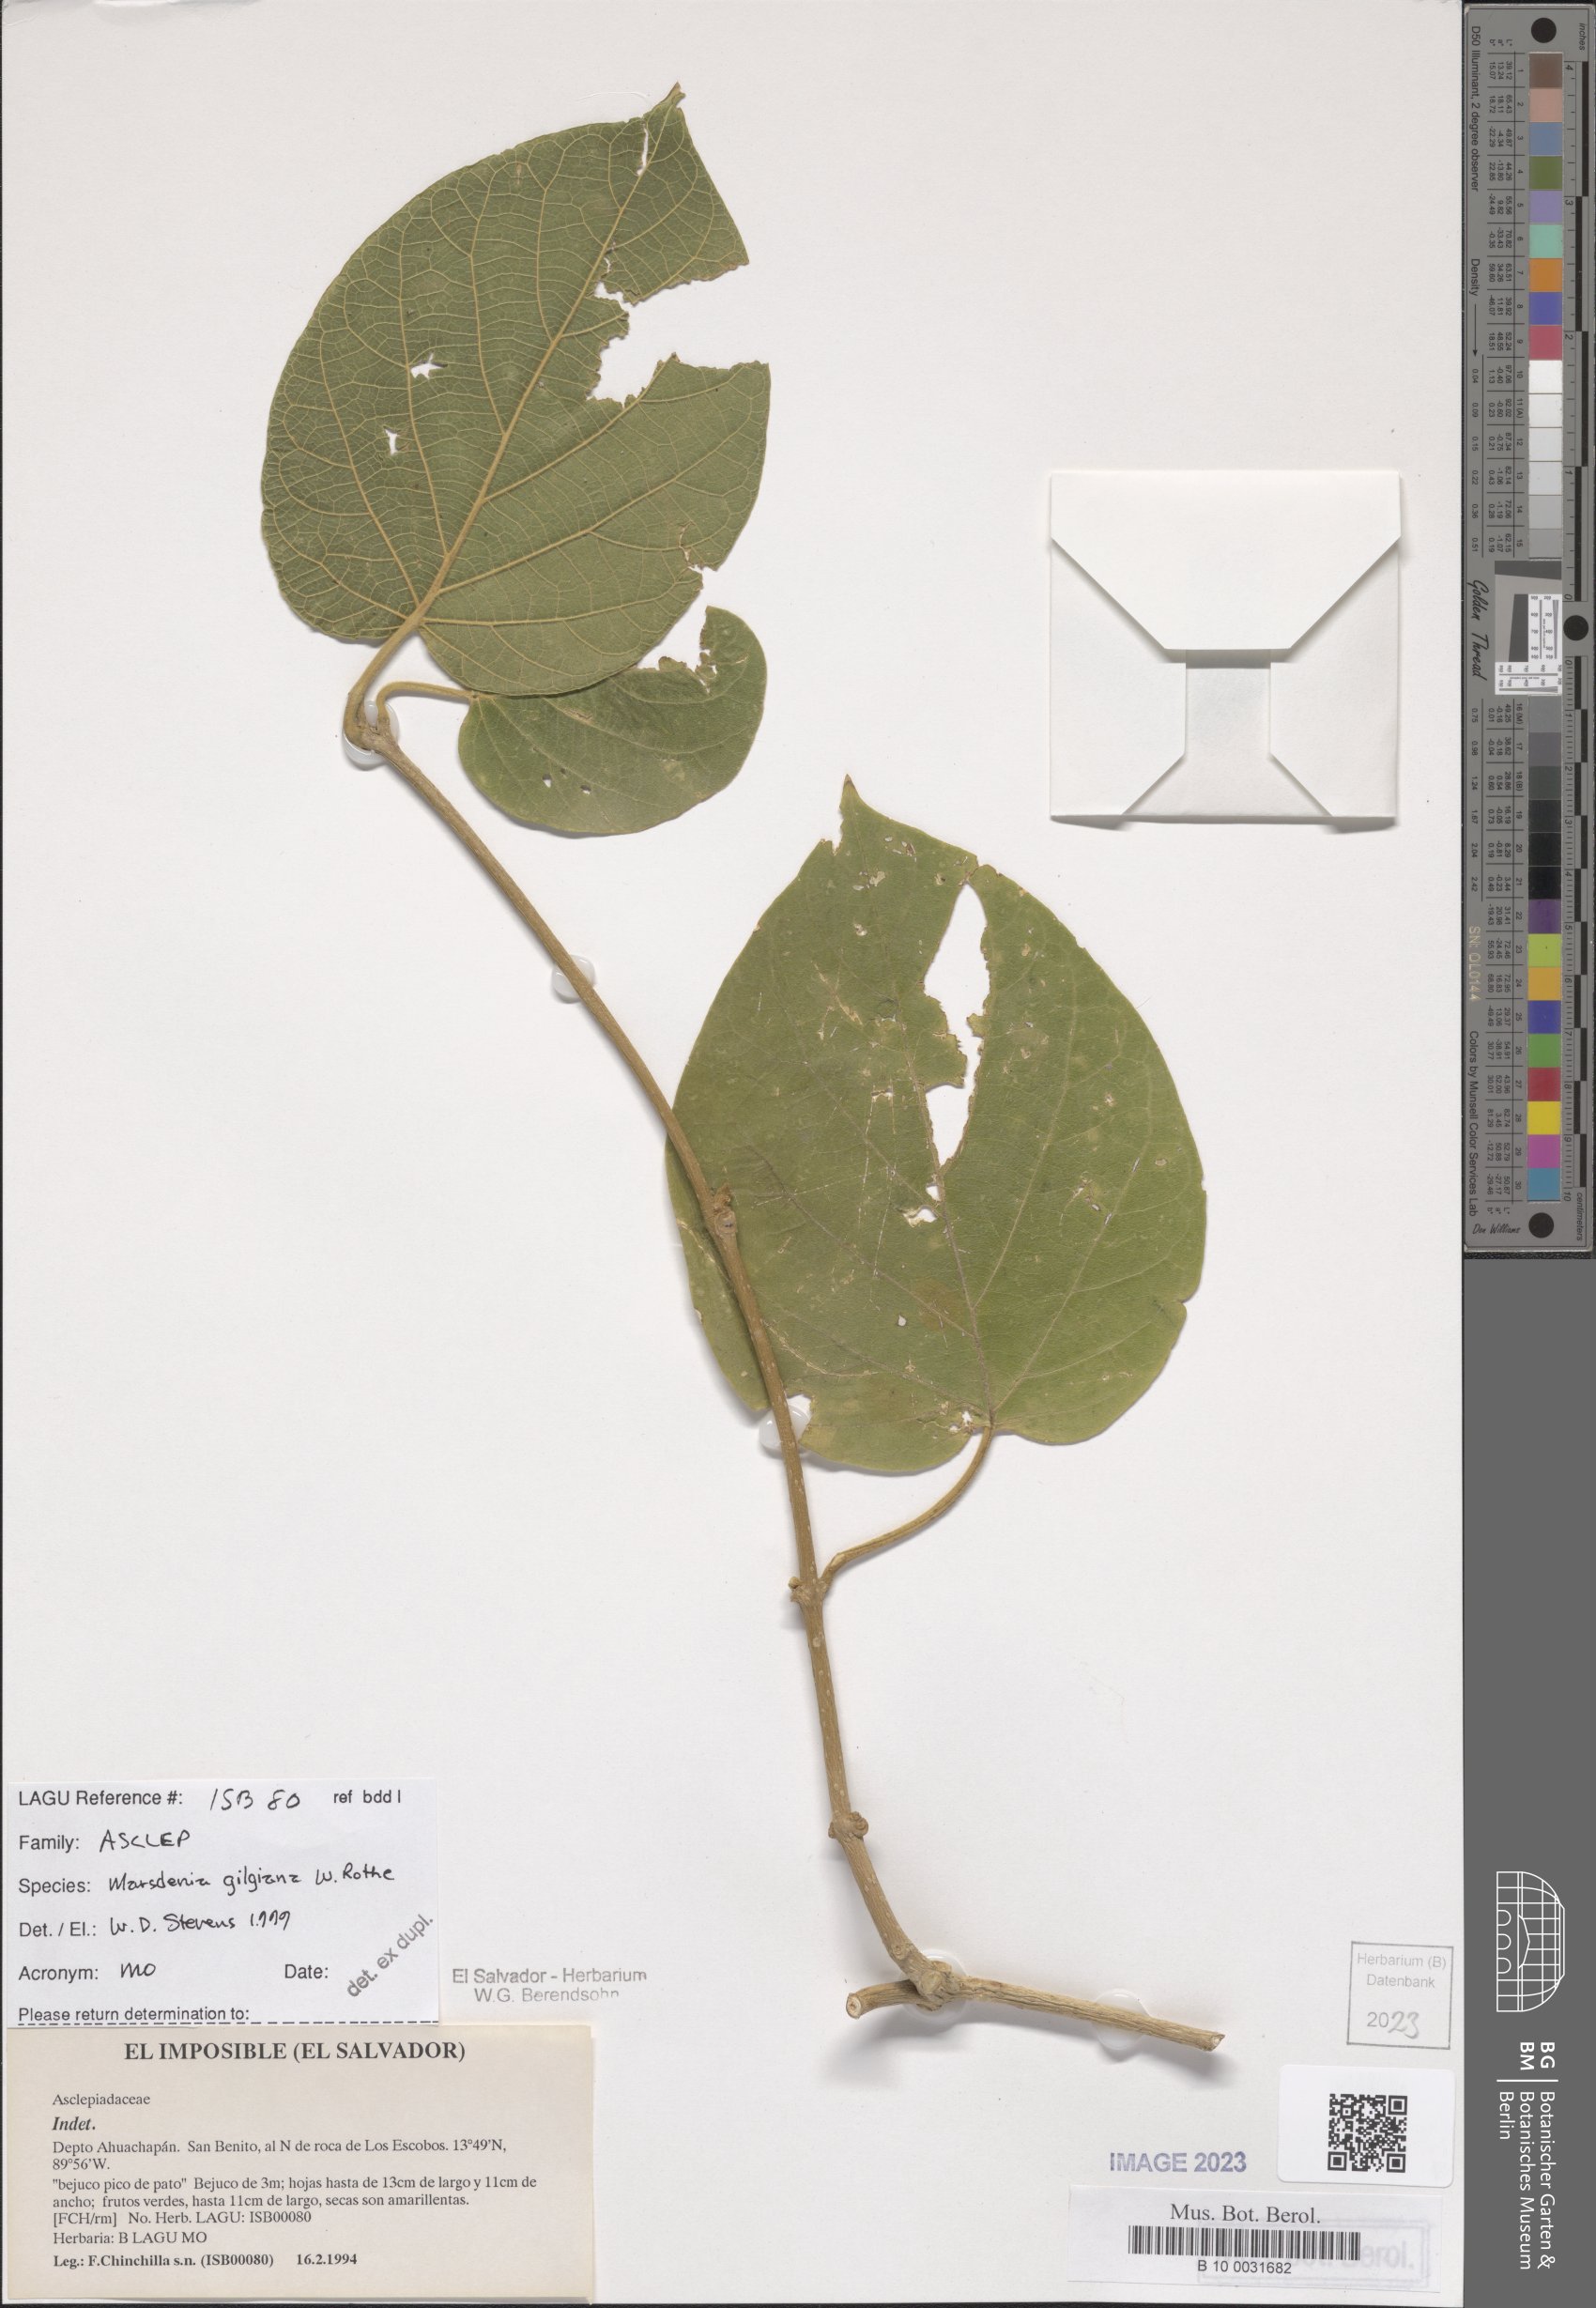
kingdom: Plantae
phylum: Tracheophyta
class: Magnoliopsida
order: Gentianales
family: Apocynaceae
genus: Ruehssia
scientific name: Ruehssia gilgiana
